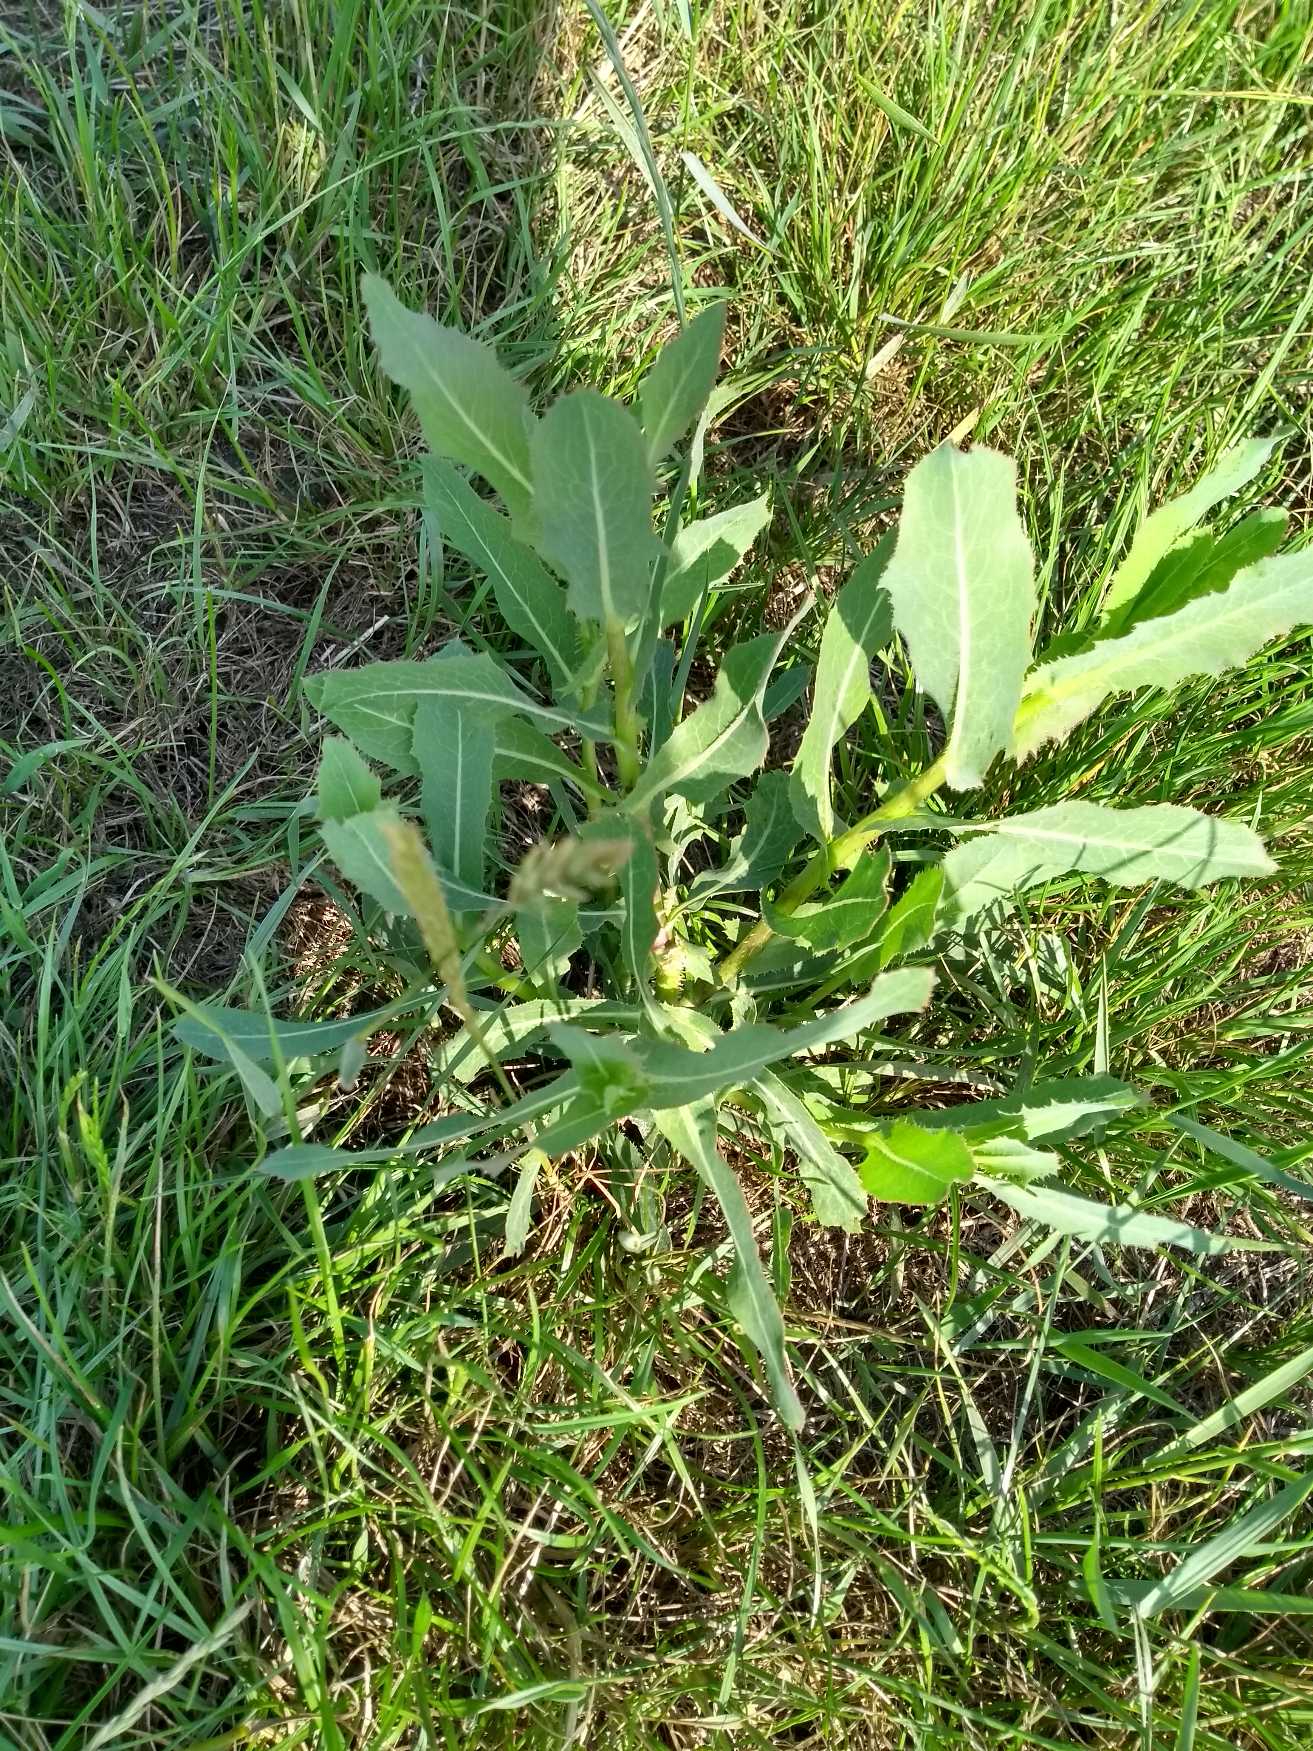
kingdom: Plantae
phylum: Tracheophyta
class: Magnoliopsida
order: Asterales
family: Asteraceae
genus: Lactuca
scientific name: Lactuca serriola
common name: Tornet salat
